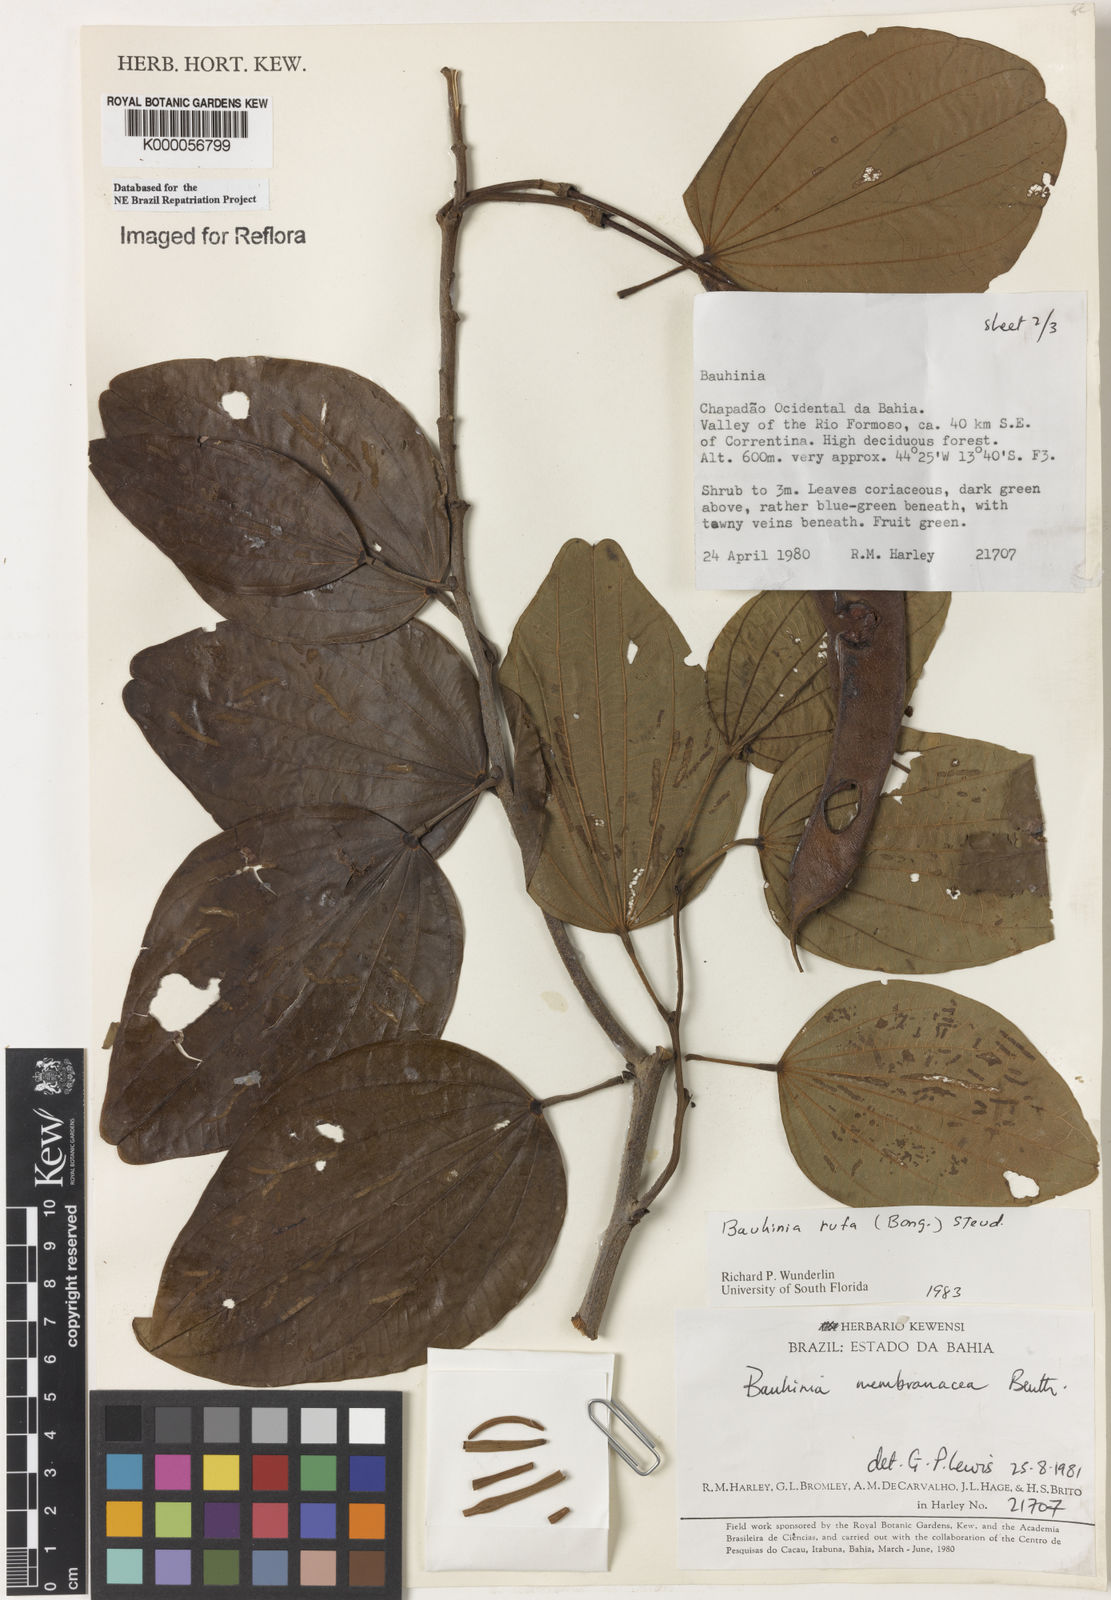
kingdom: Plantae
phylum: Tracheophyta
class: Magnoliopsida
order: Fabales
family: Fabaceae
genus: Bauhinia
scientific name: Bauhinia rufa
